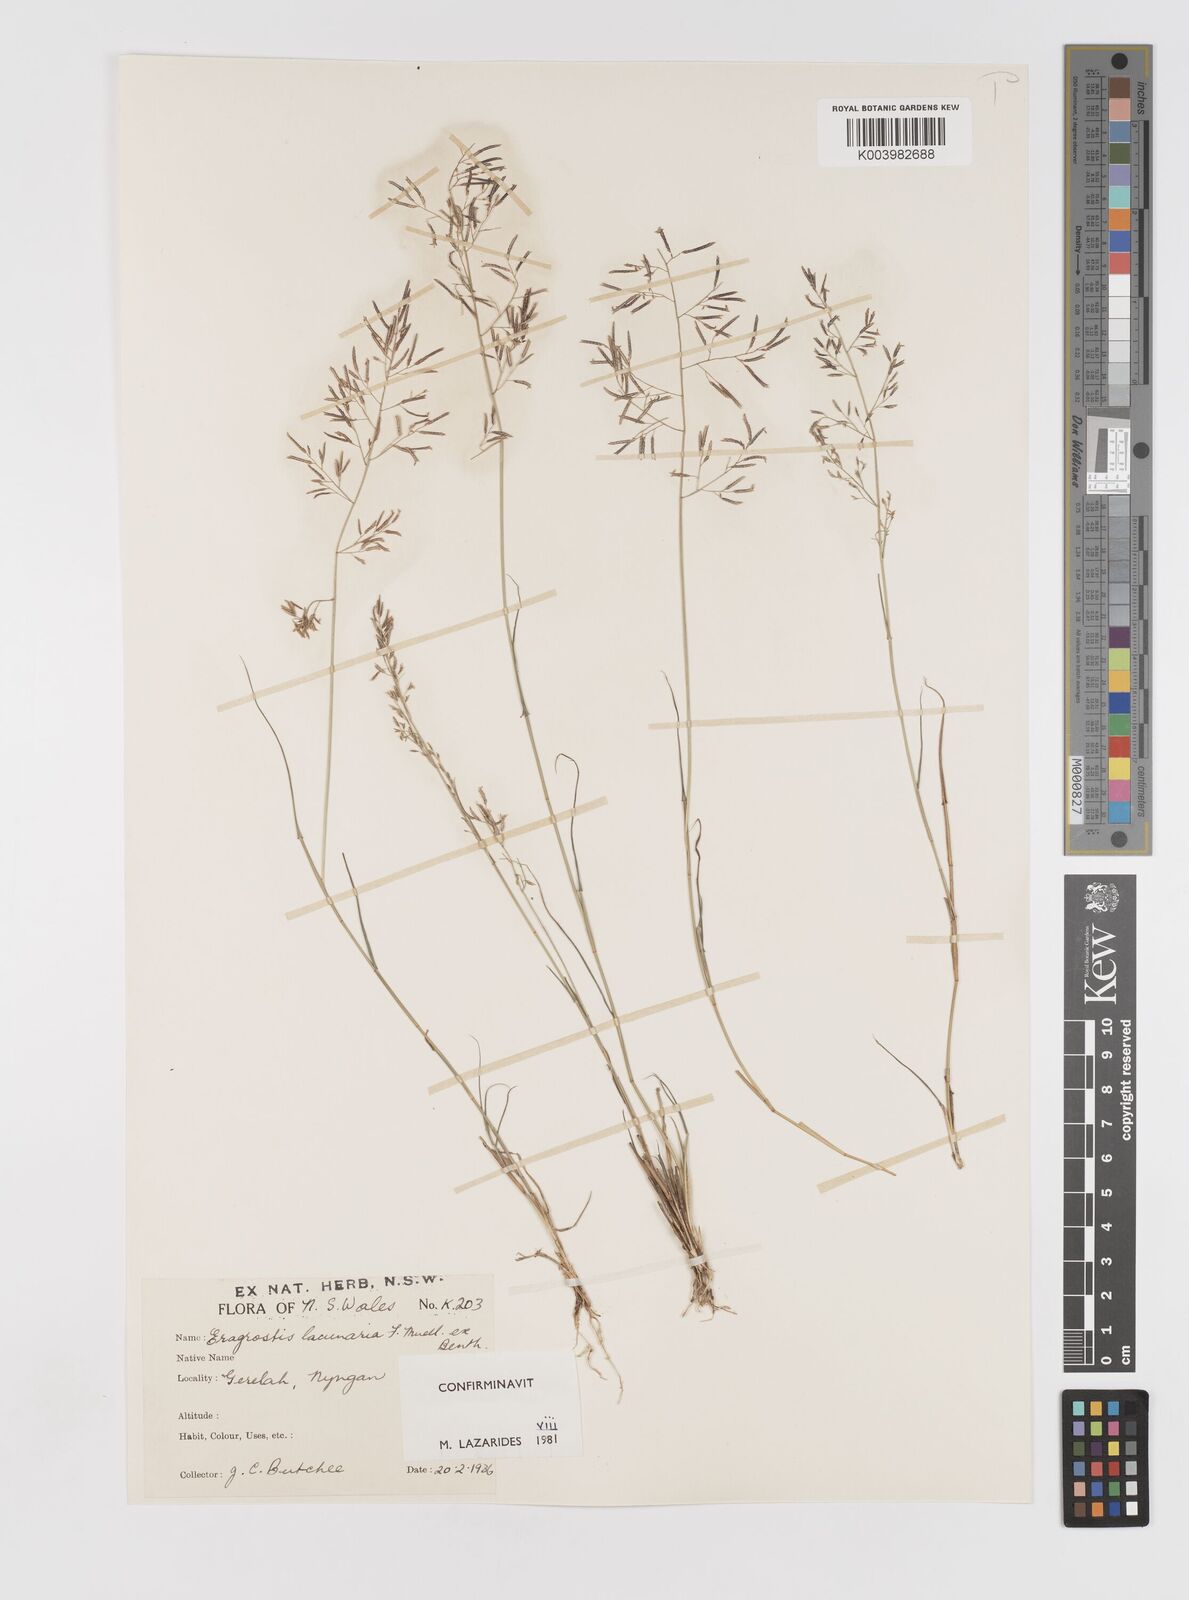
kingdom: Plantae
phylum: Tracheophyta
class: Liliopsida
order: Poales
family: Poaceae
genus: Eragrostis
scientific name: Eragrostis lacunaria
